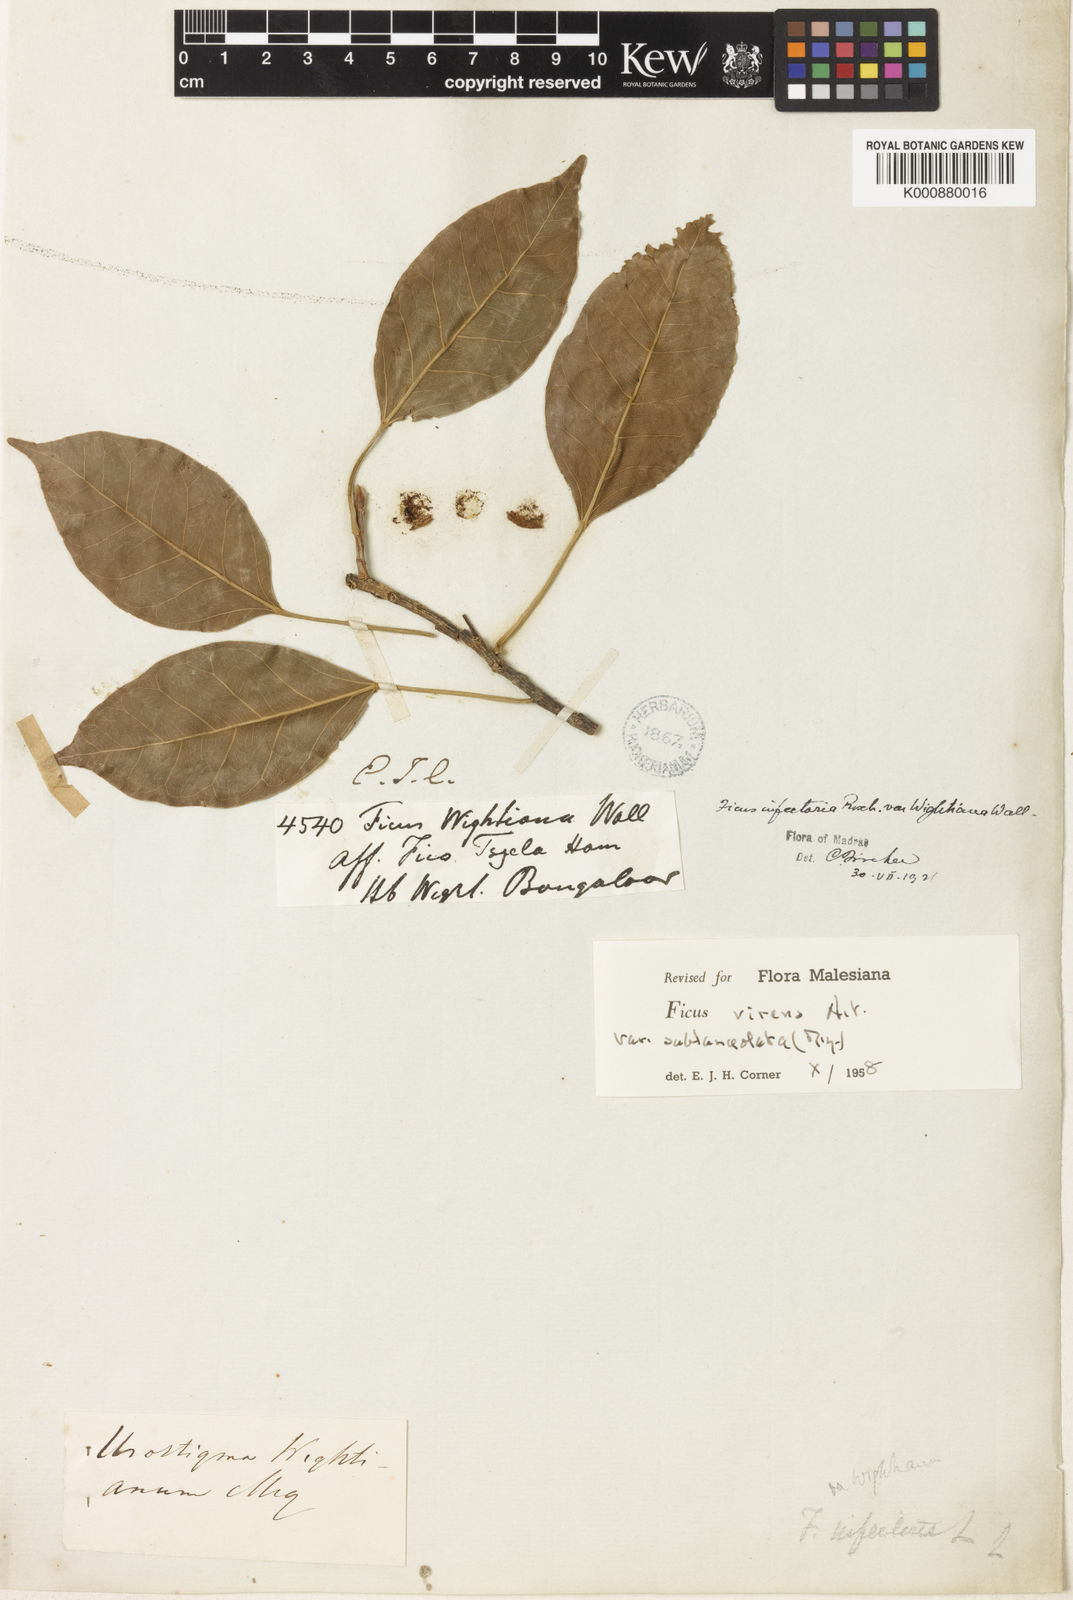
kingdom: Plantae
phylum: Tracheophyta
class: Magnoliopsida
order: Rosales
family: Moraceae
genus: Ficus
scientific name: Ficus virens
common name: Spotted fig
